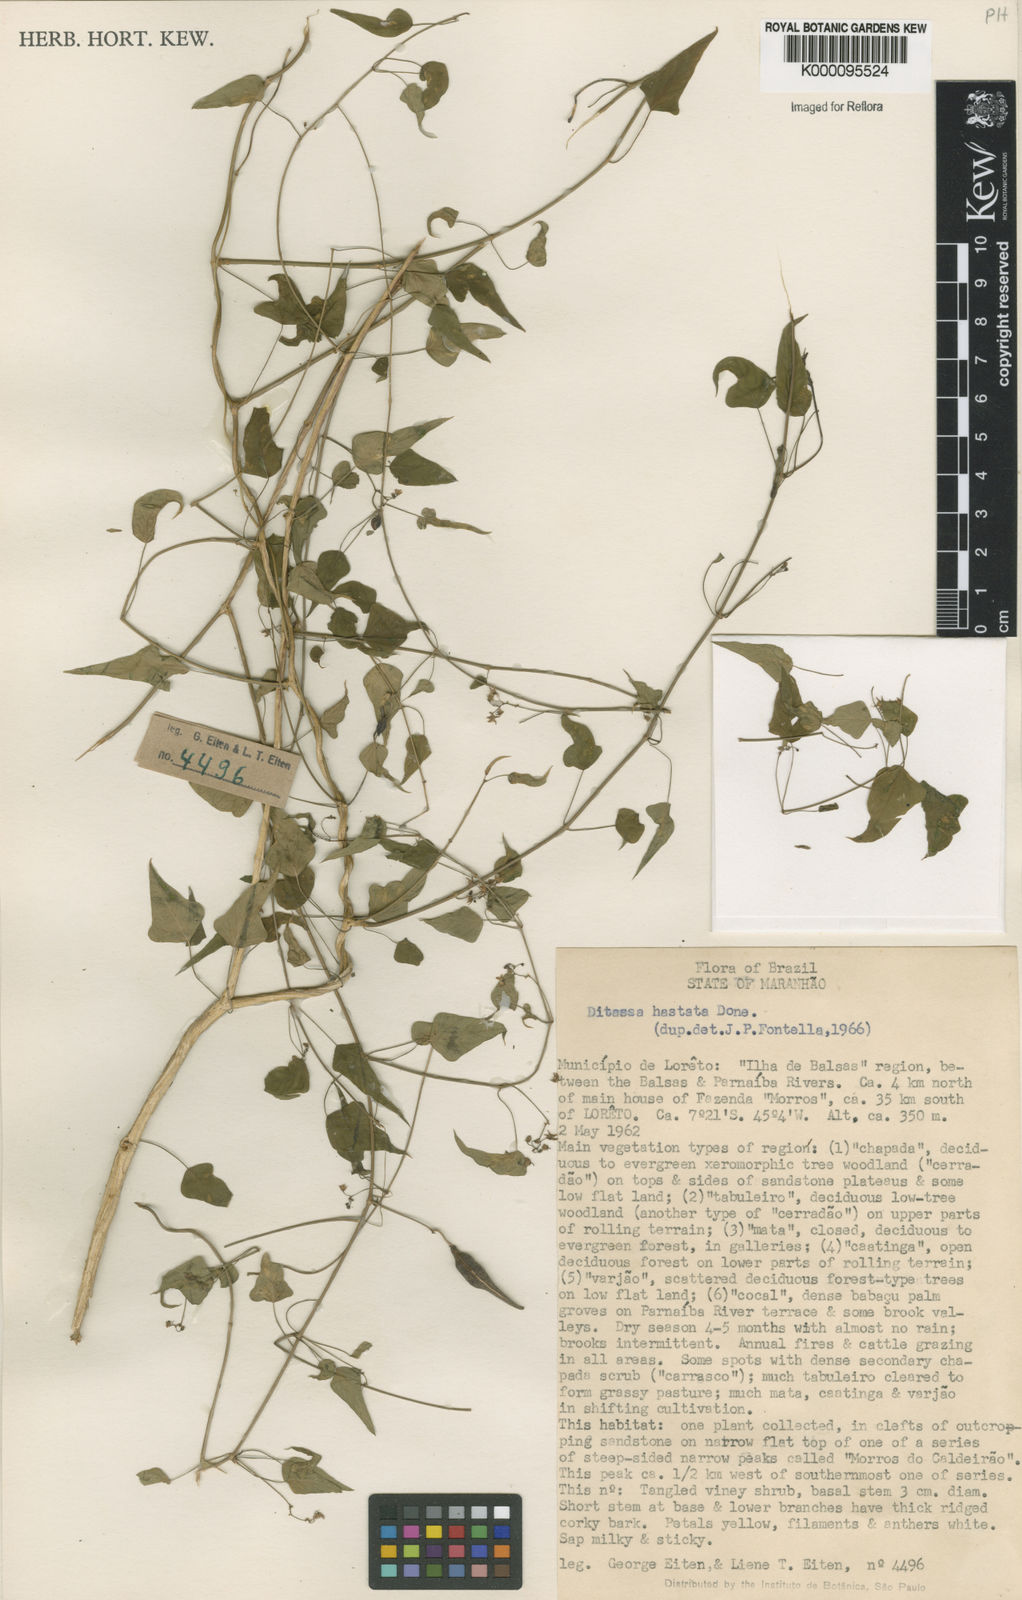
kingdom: Plantae
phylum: Tracheophyta
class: Magnoliopsida
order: Gentianales
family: Apocynaceae
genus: Ditassa
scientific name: Ditassa hastata
